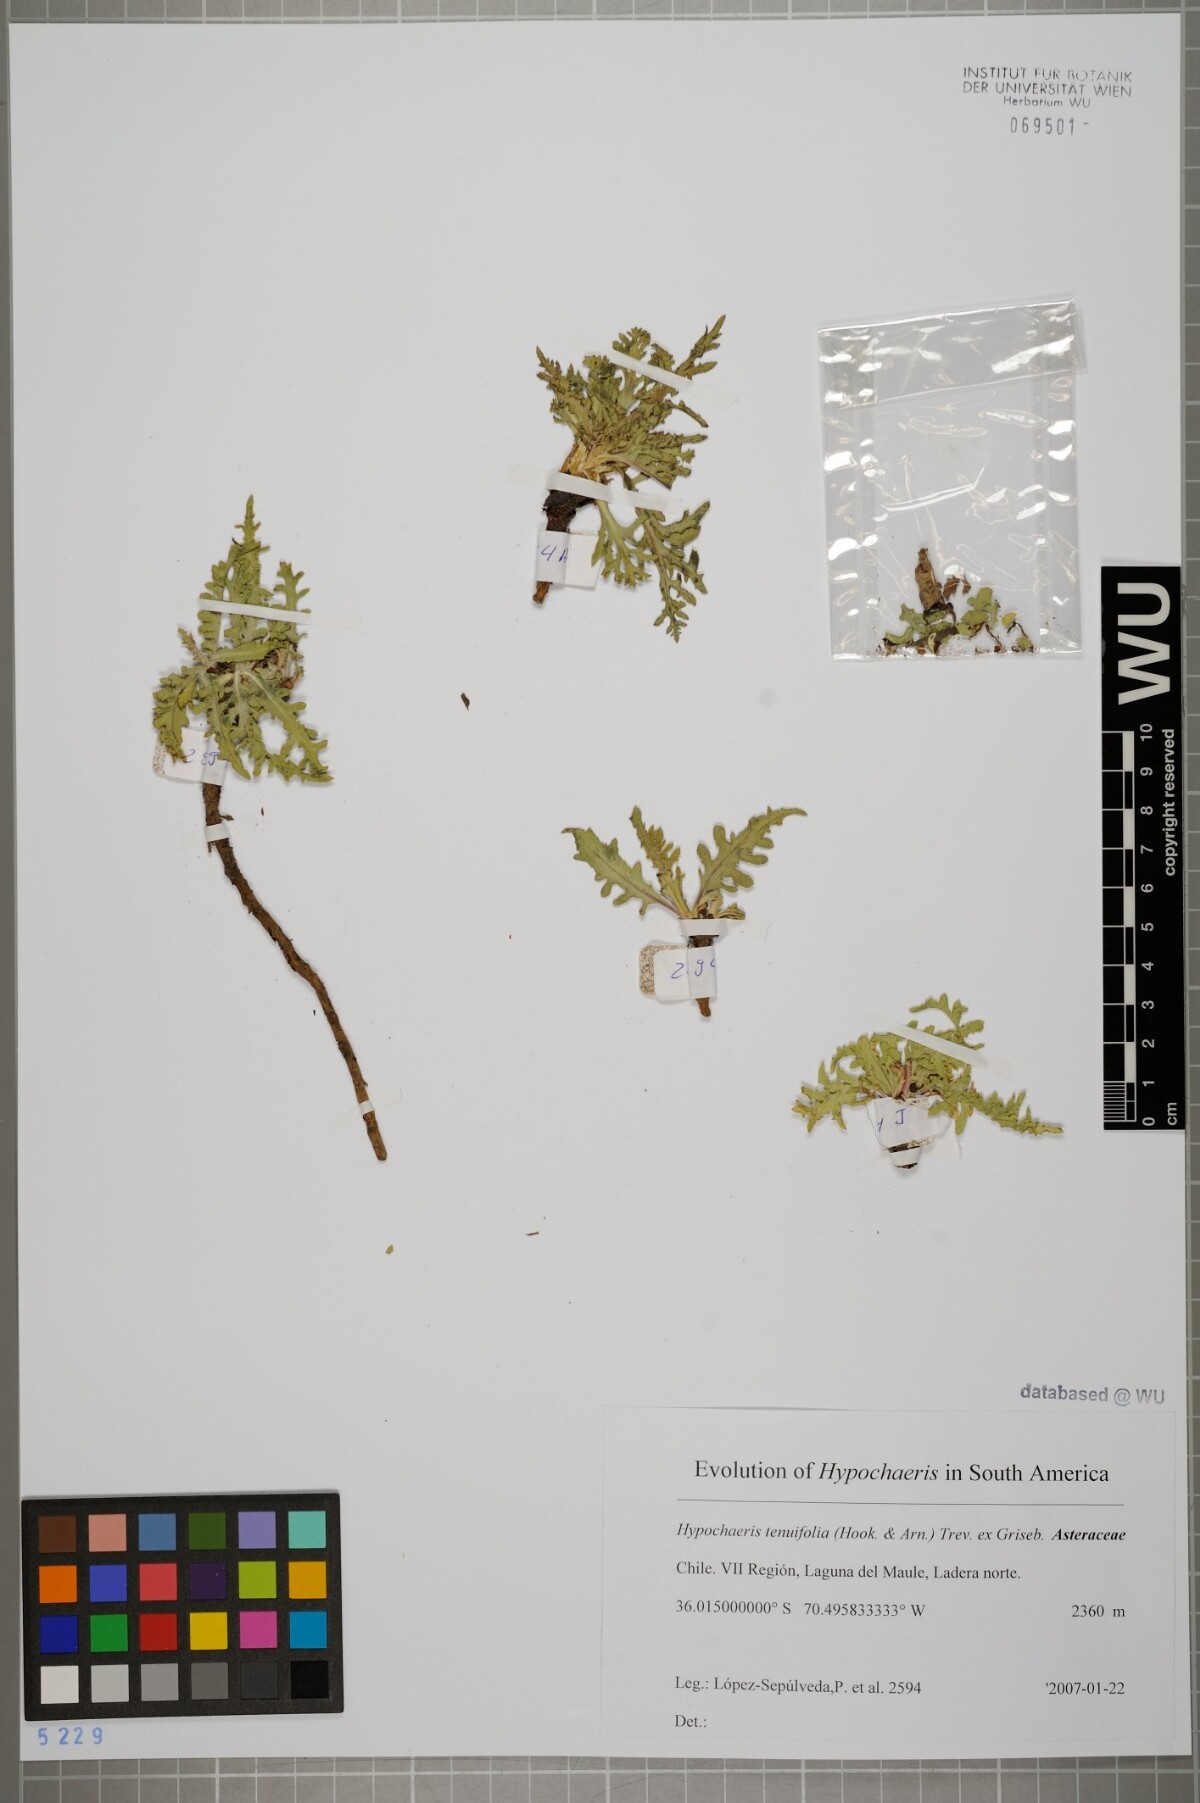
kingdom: Plantae
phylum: Tracheophyta
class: Magnoliopsida
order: Asterales
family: Asteraceae
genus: Hypochaeris
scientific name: Hypochaeris tenuifolia
